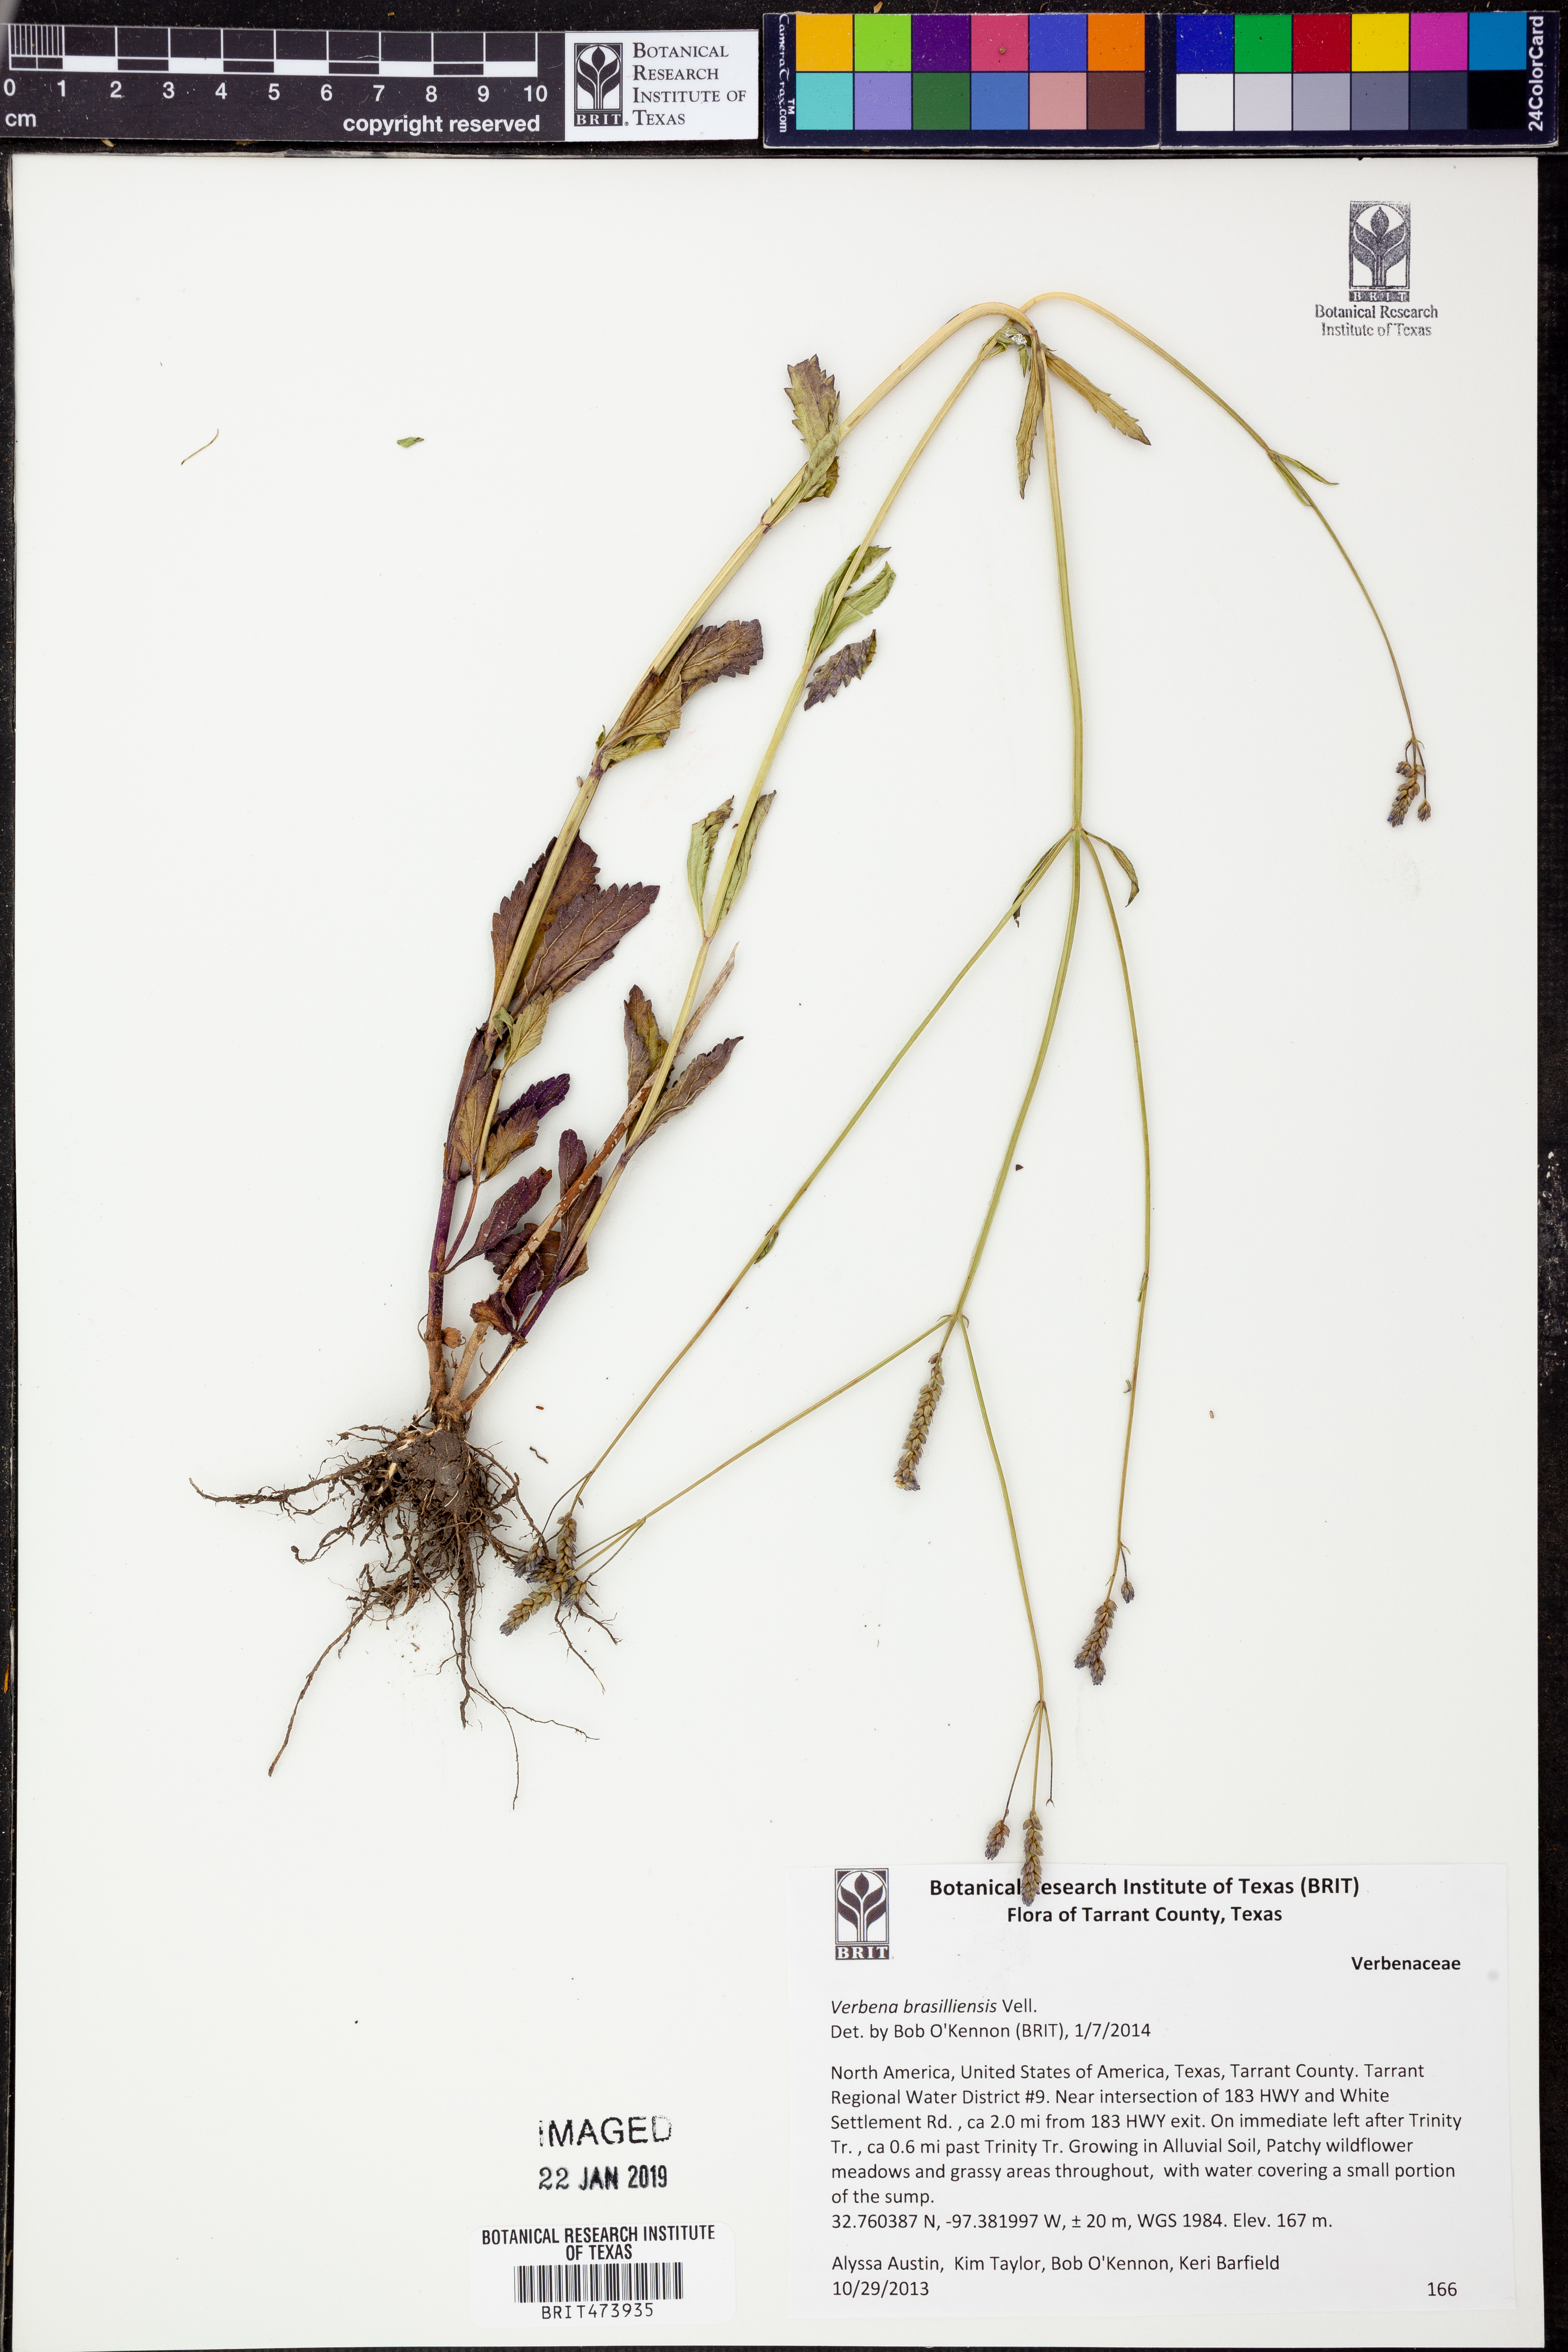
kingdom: Plantae
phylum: Tracheophyta
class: Magnoliopsida
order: Lamiales
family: Verbenaceae
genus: Verbena
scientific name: Verbena brasiliensis
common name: Brazilian vervain
